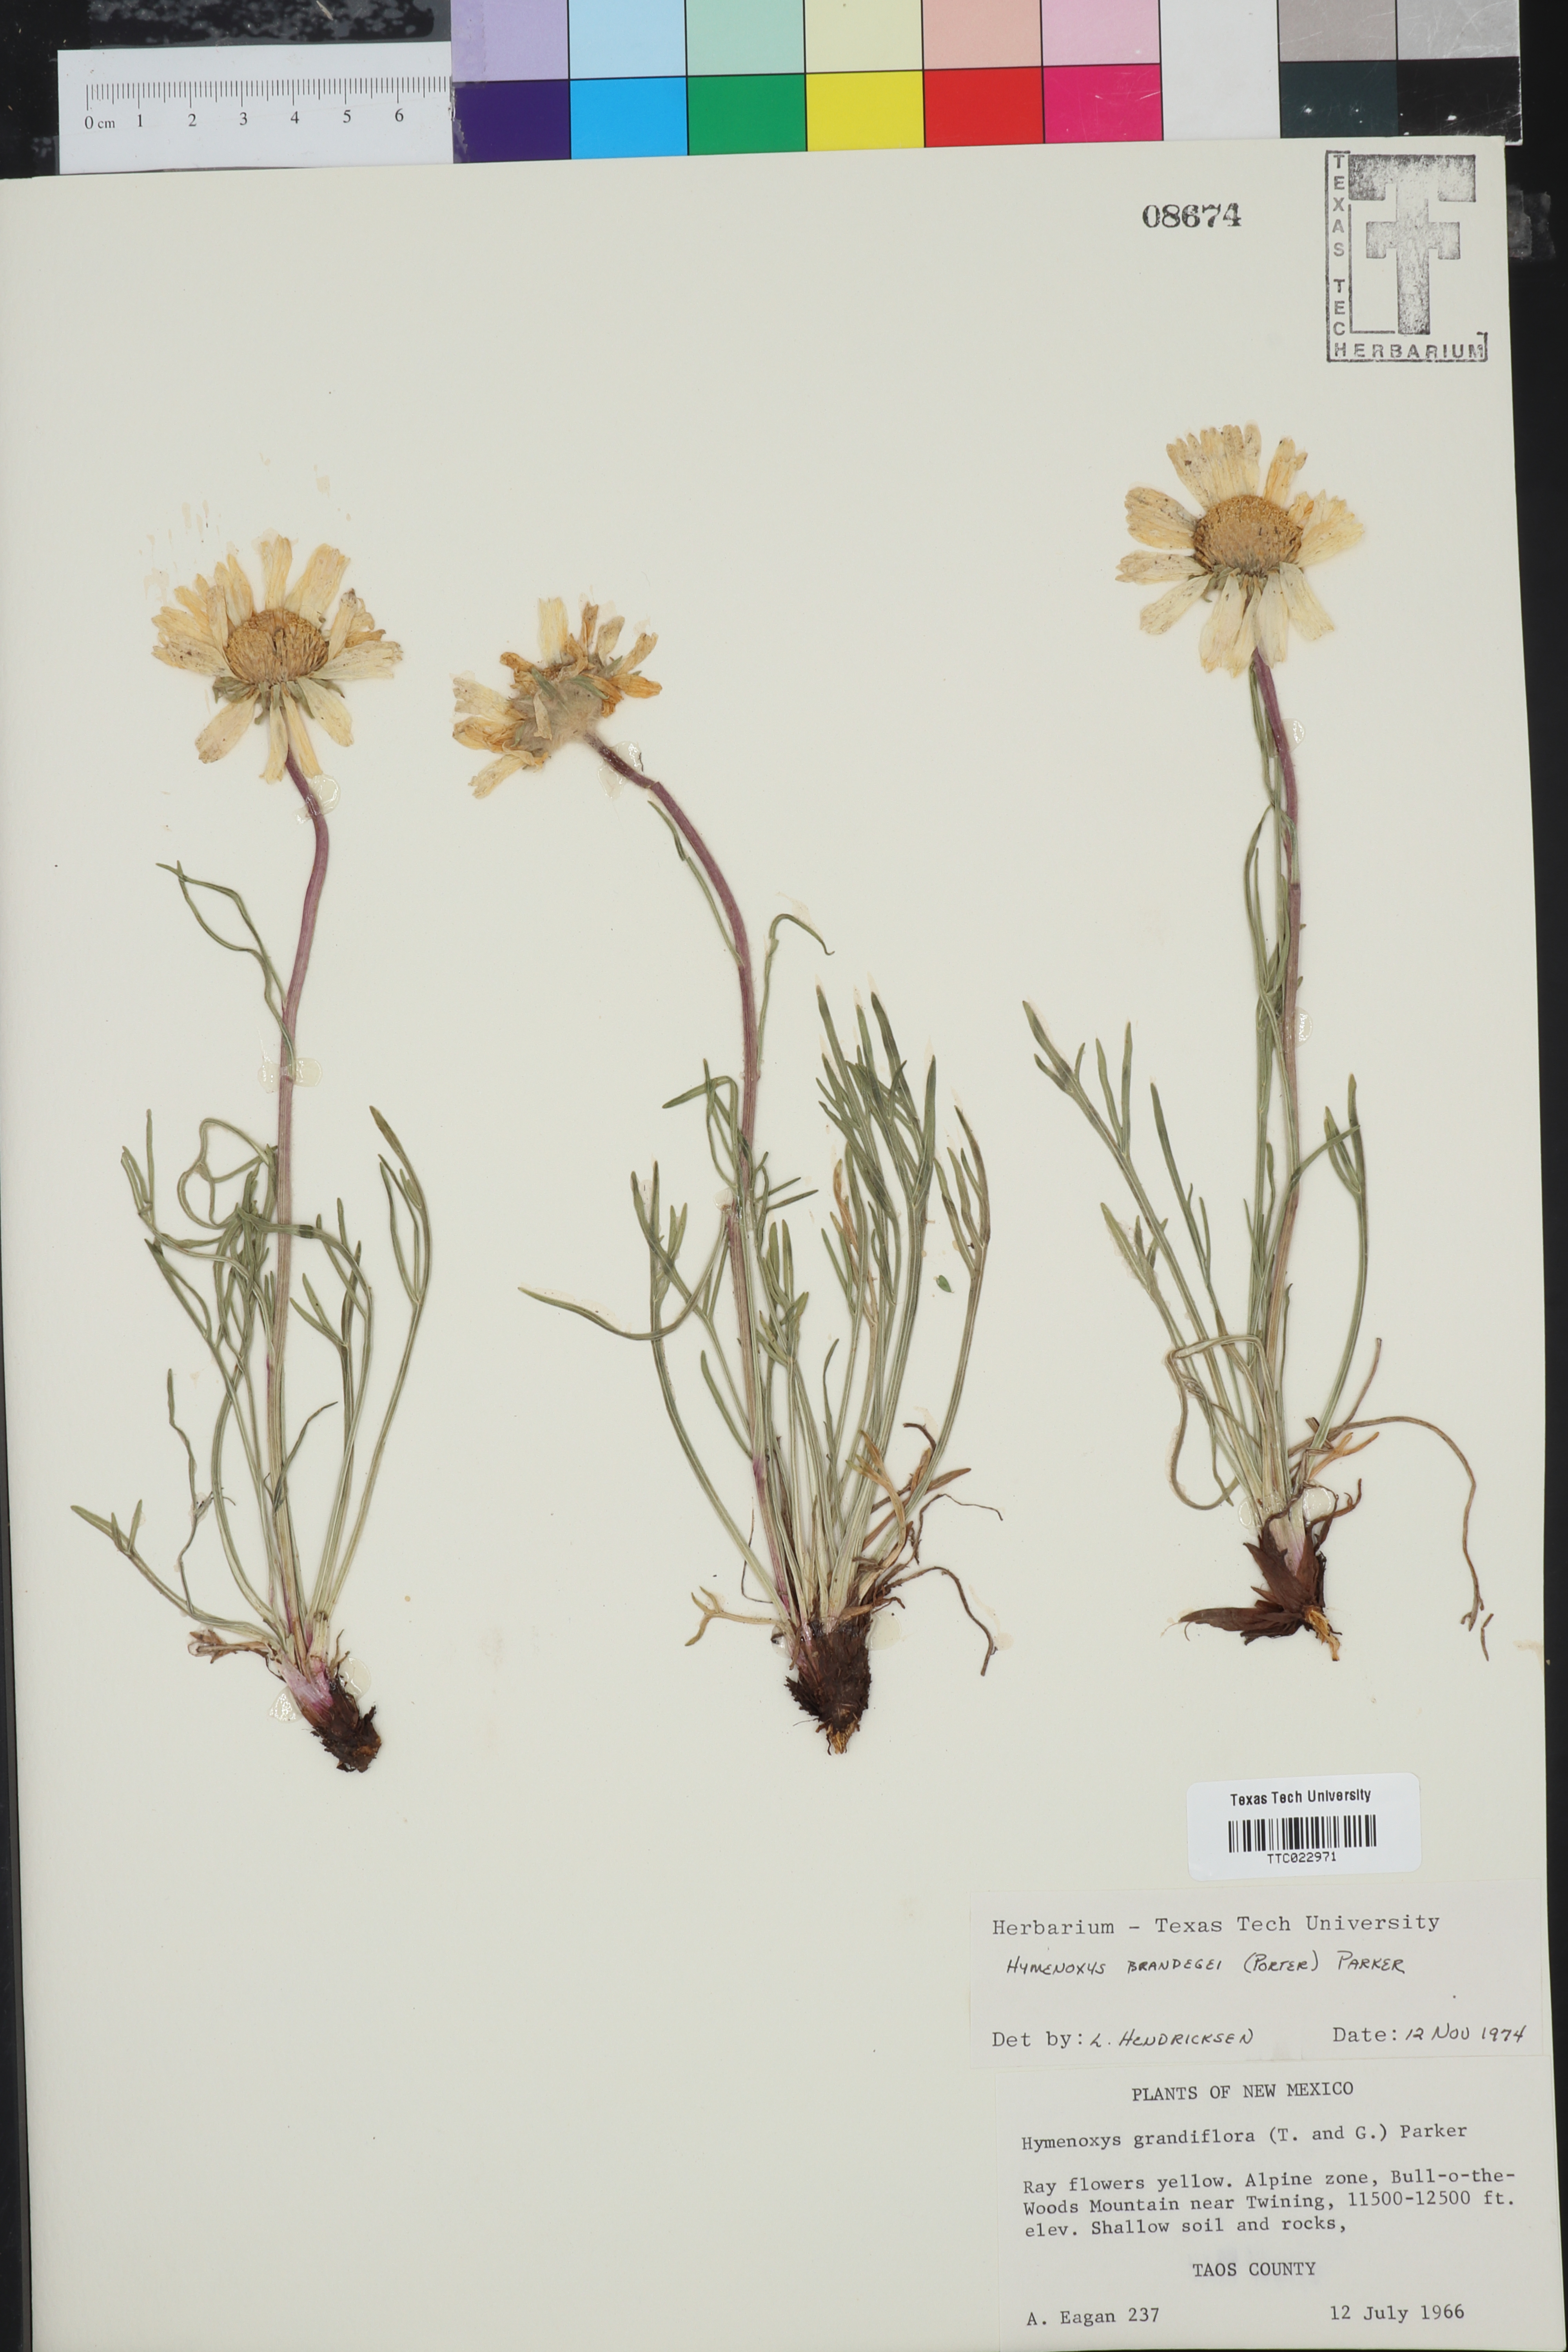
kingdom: Plantae
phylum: Tracheophyta
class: Magnoliopsida
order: Asterales
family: Asteraceae
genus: Hymenoxys
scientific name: Hymenoxys brandegeei
